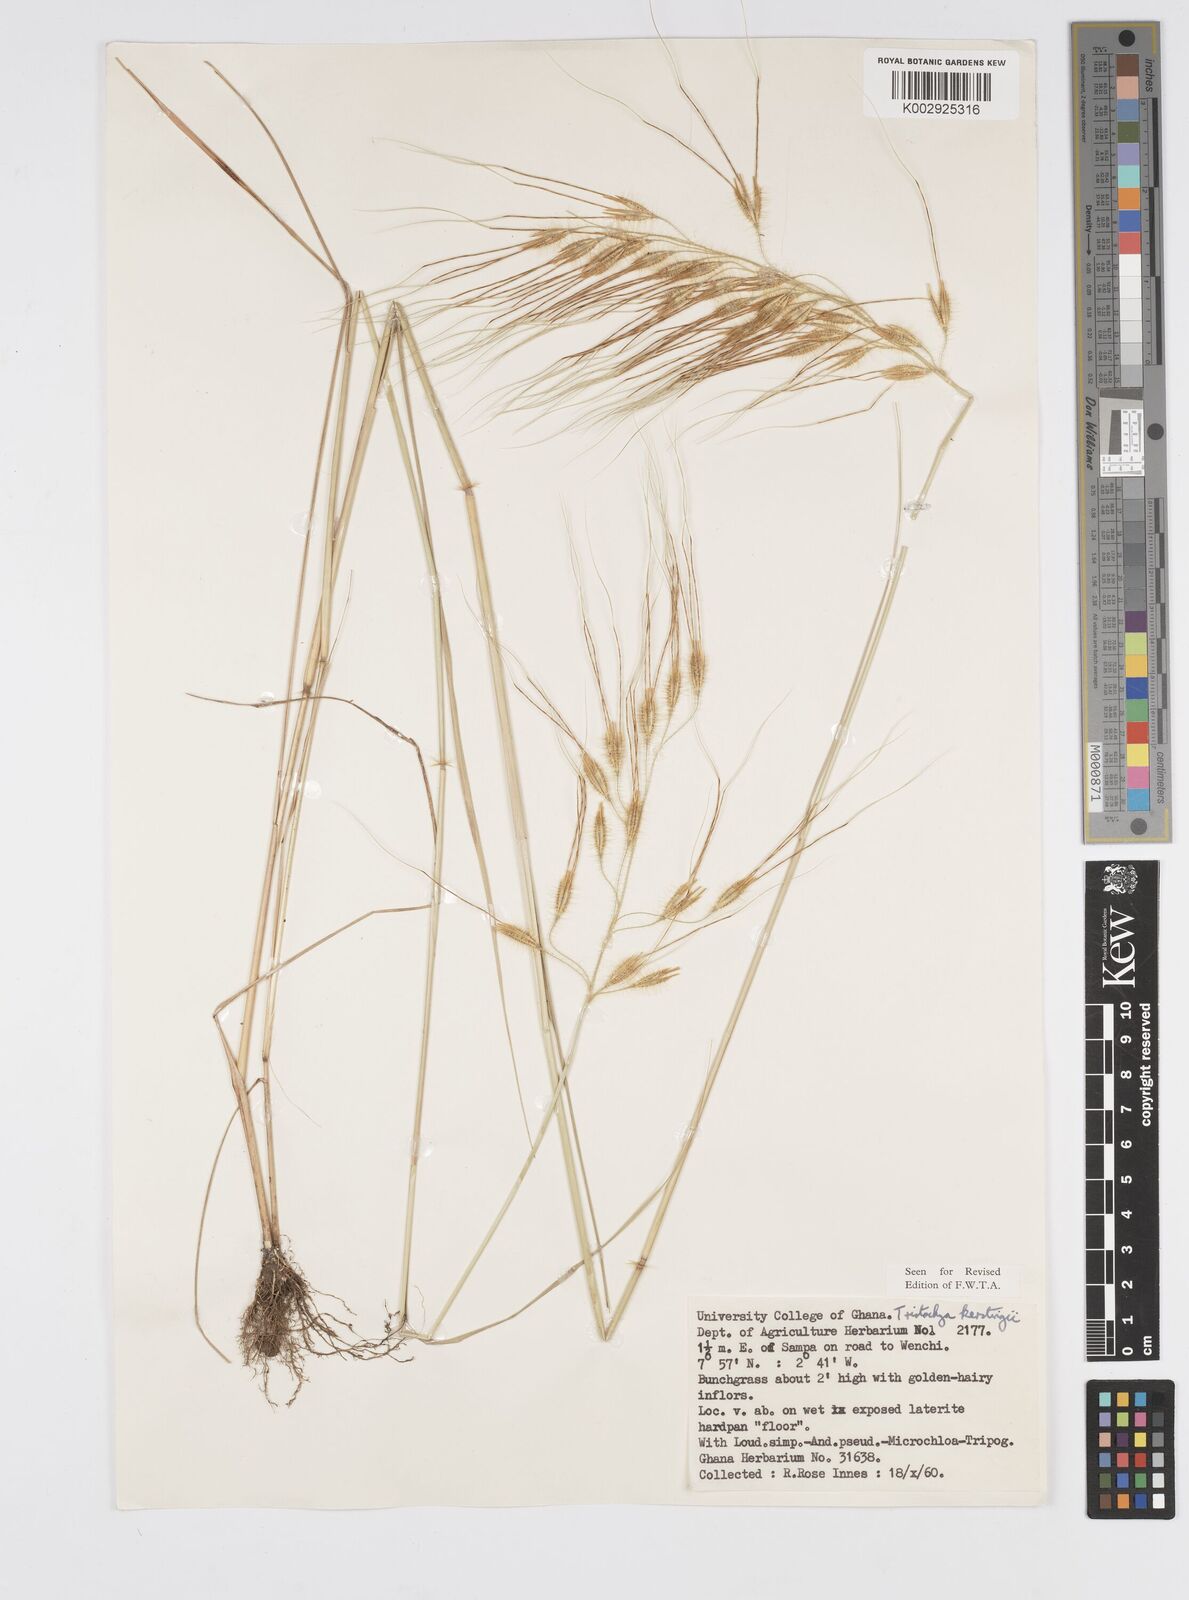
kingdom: Plantae
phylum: Tracheophyta
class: Liliopsida
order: Poales
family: Poaceae
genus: Loudetiopsis
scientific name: Loudetiopsis kerstingii
